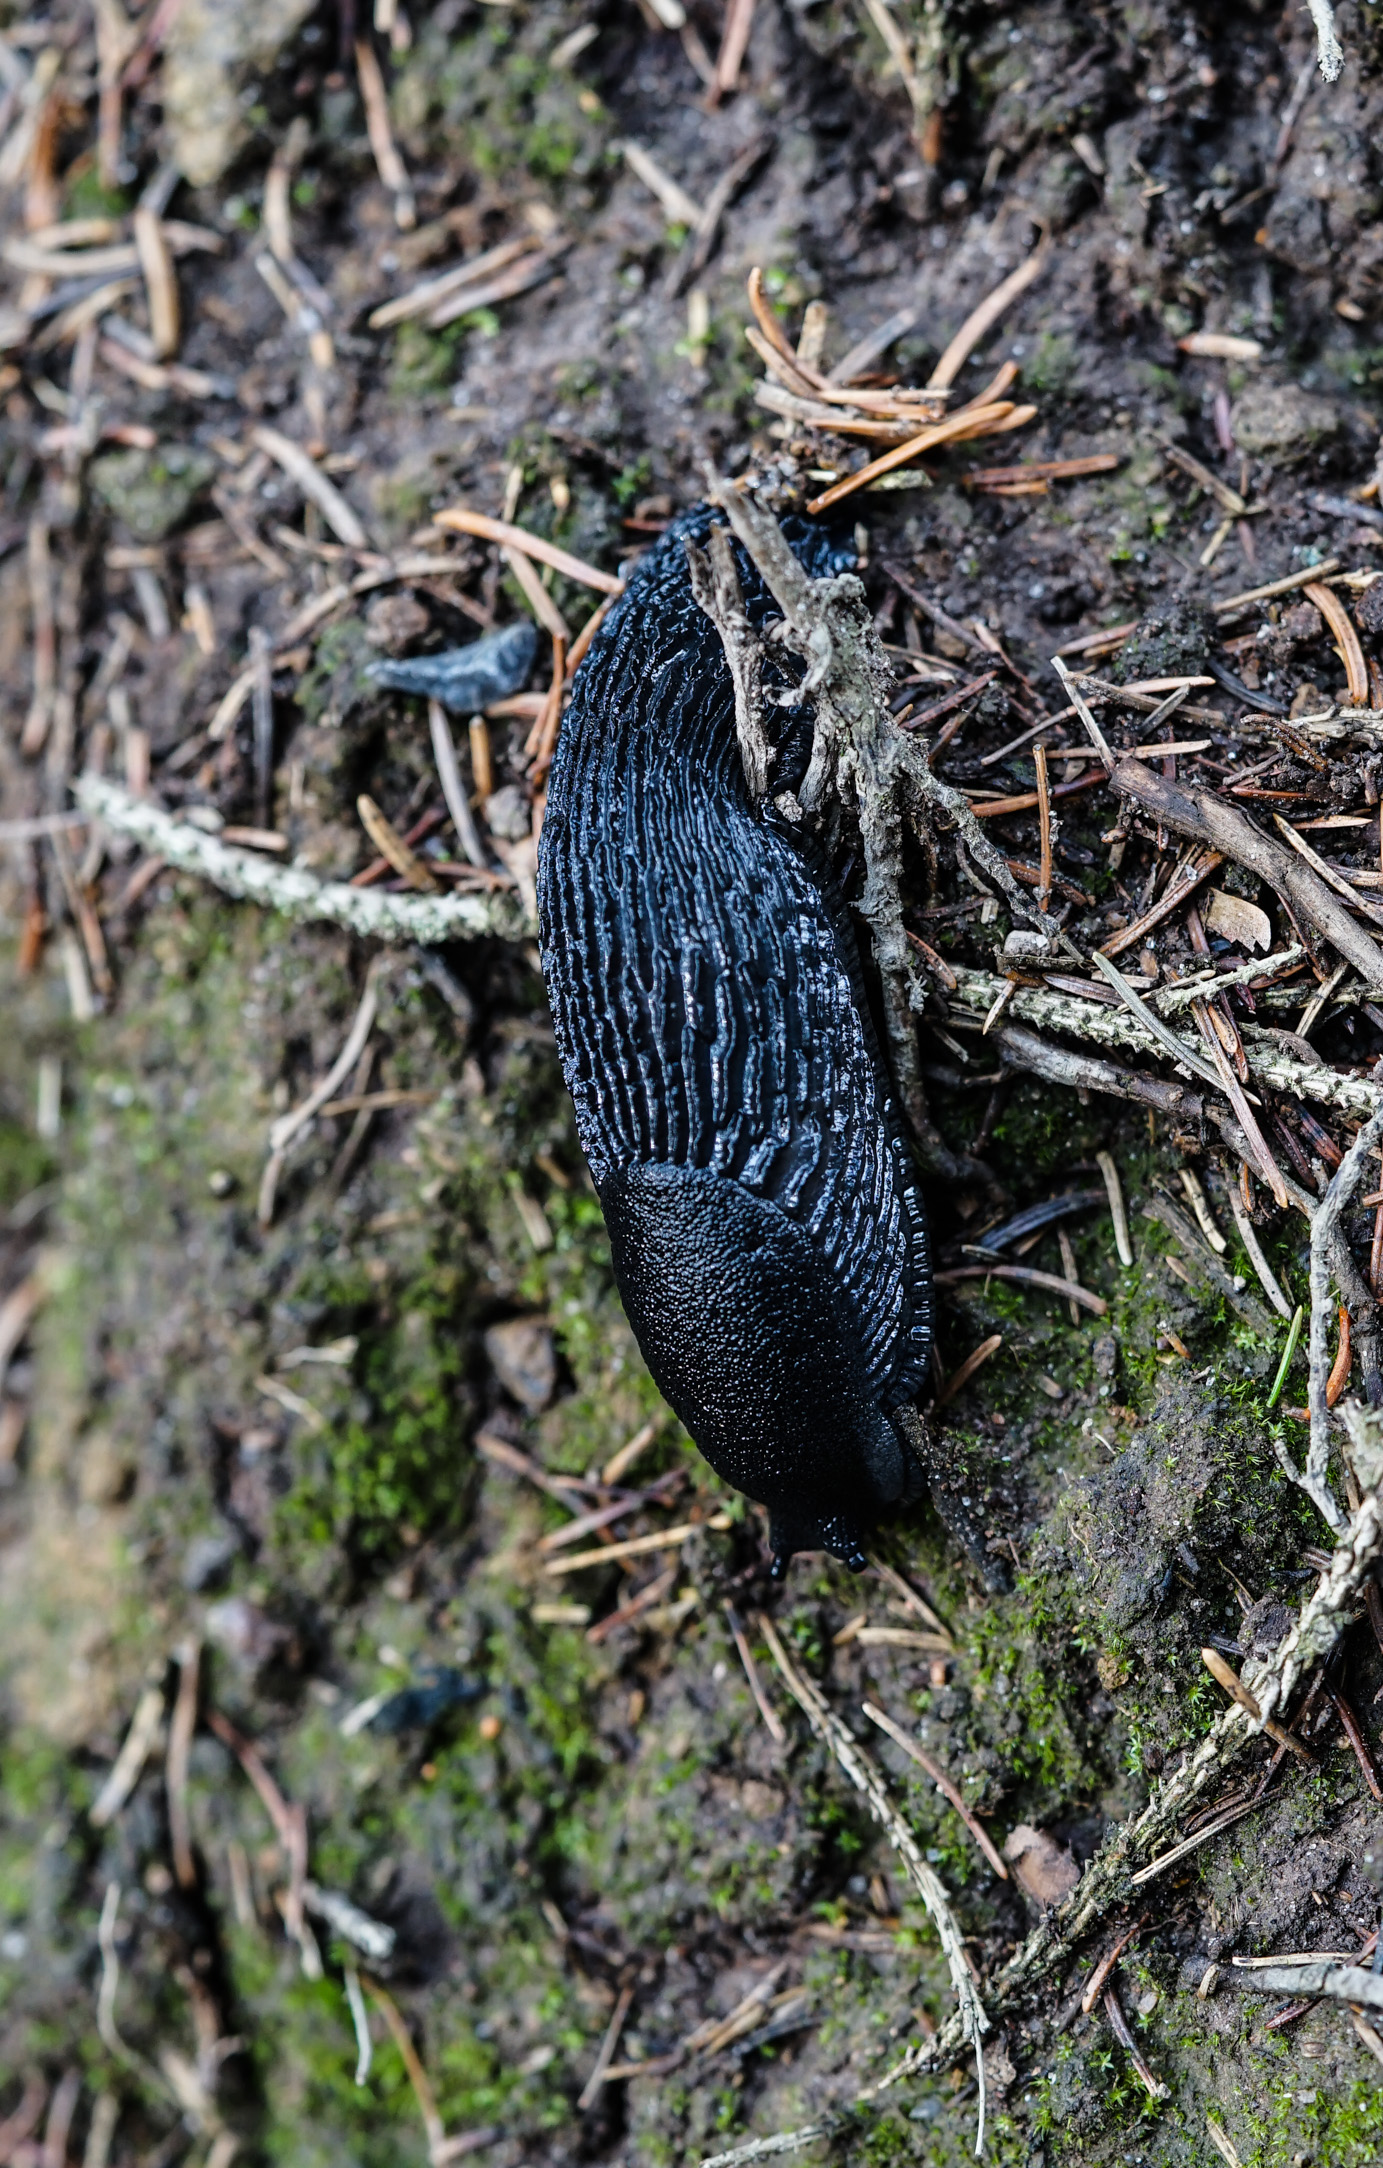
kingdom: Animalia
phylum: Mollusca
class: Gastropoda
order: Stylommatophora
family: Arionidae
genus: Arion
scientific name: Arion ater
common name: Black arion
